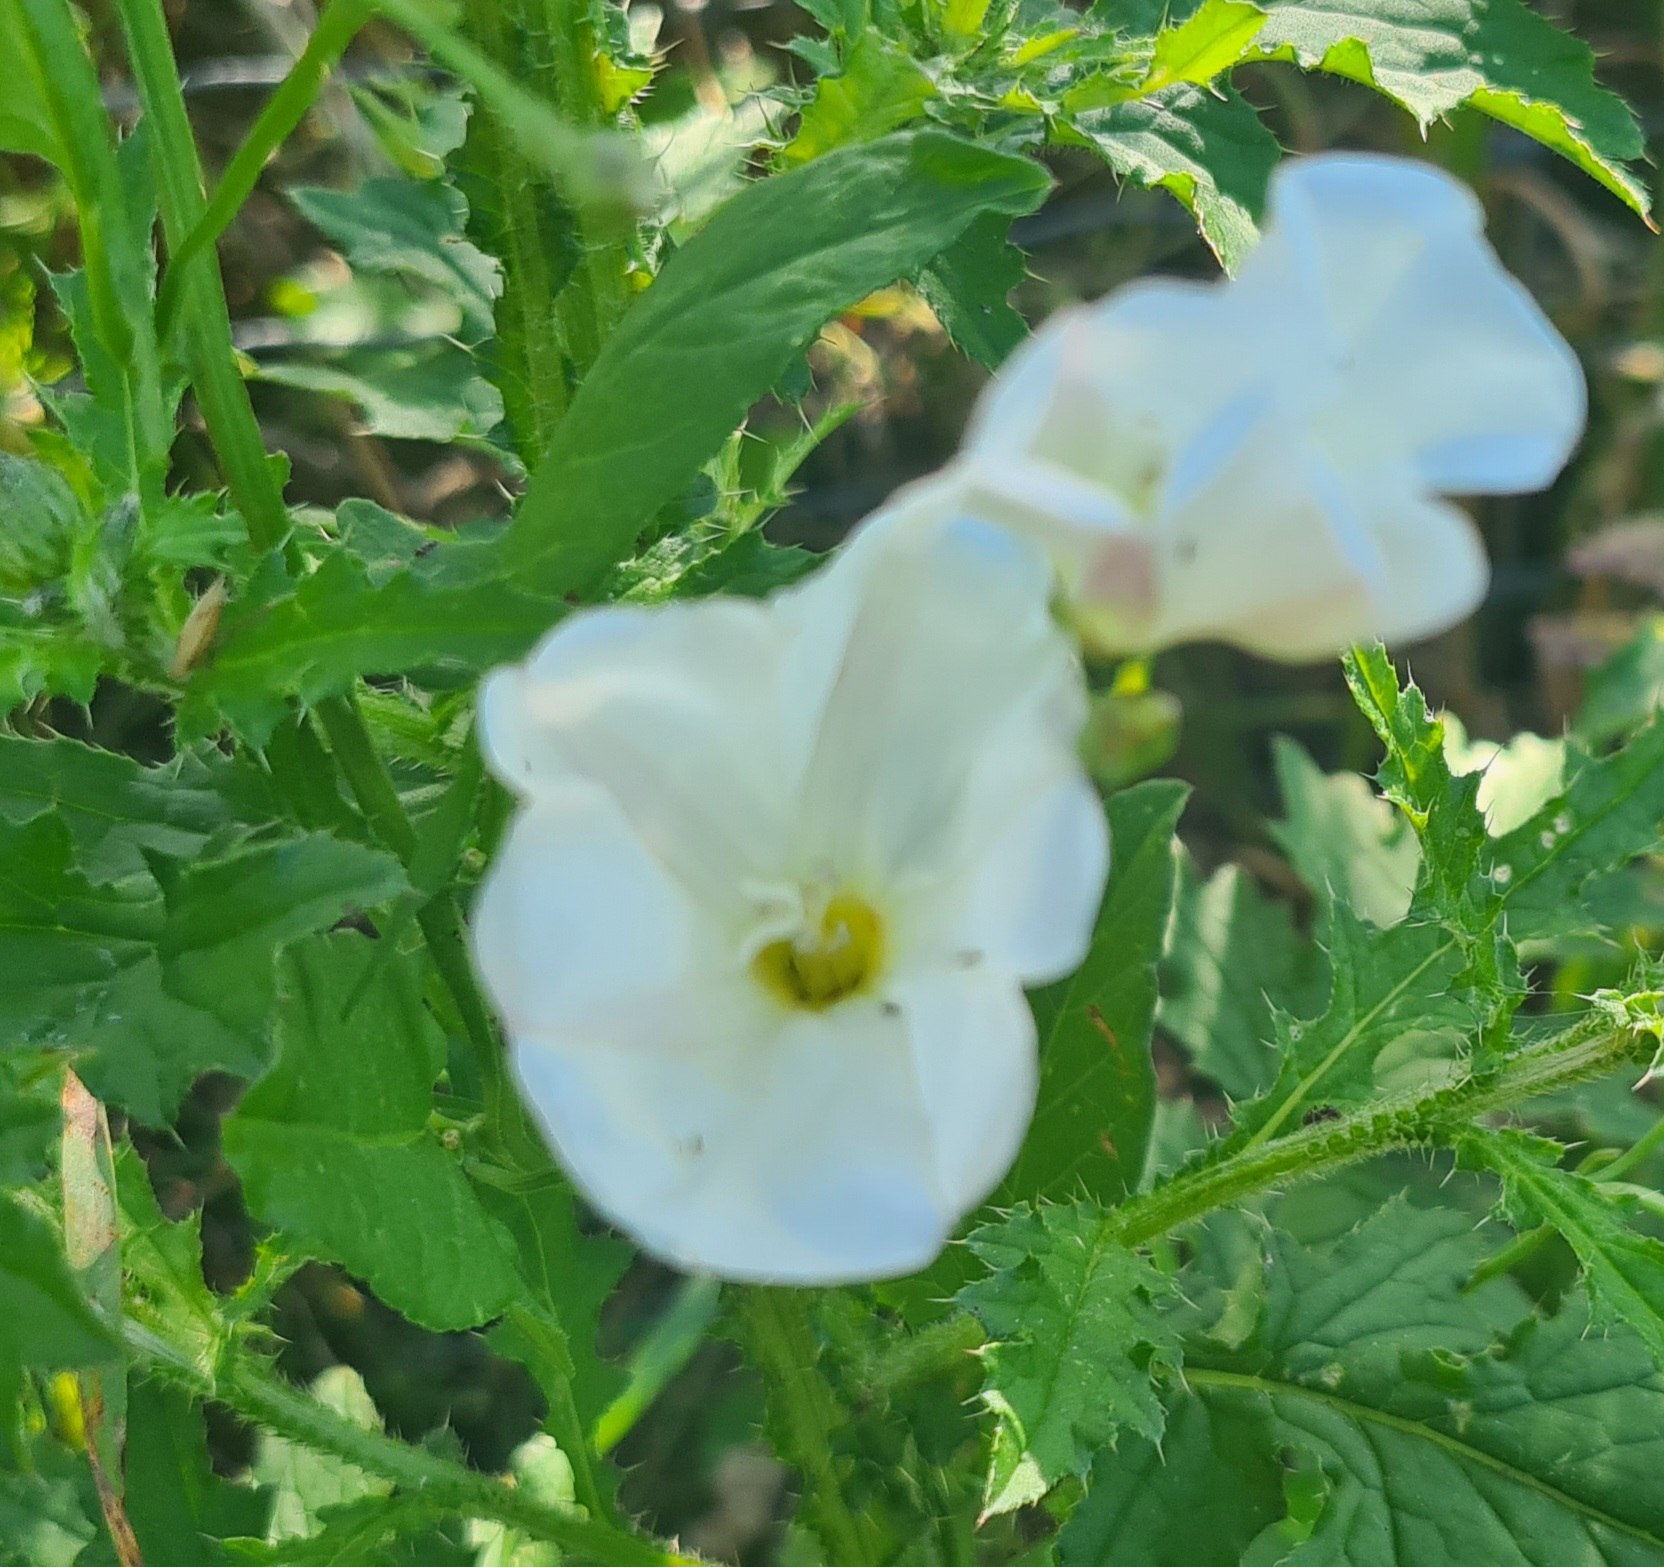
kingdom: Plantae
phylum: Tracheophyta
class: Magnoliopsida
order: Solanales
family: Convolvulaceae
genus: Convolvulus
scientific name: Convolvulus arvensis
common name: Ager-snerle
